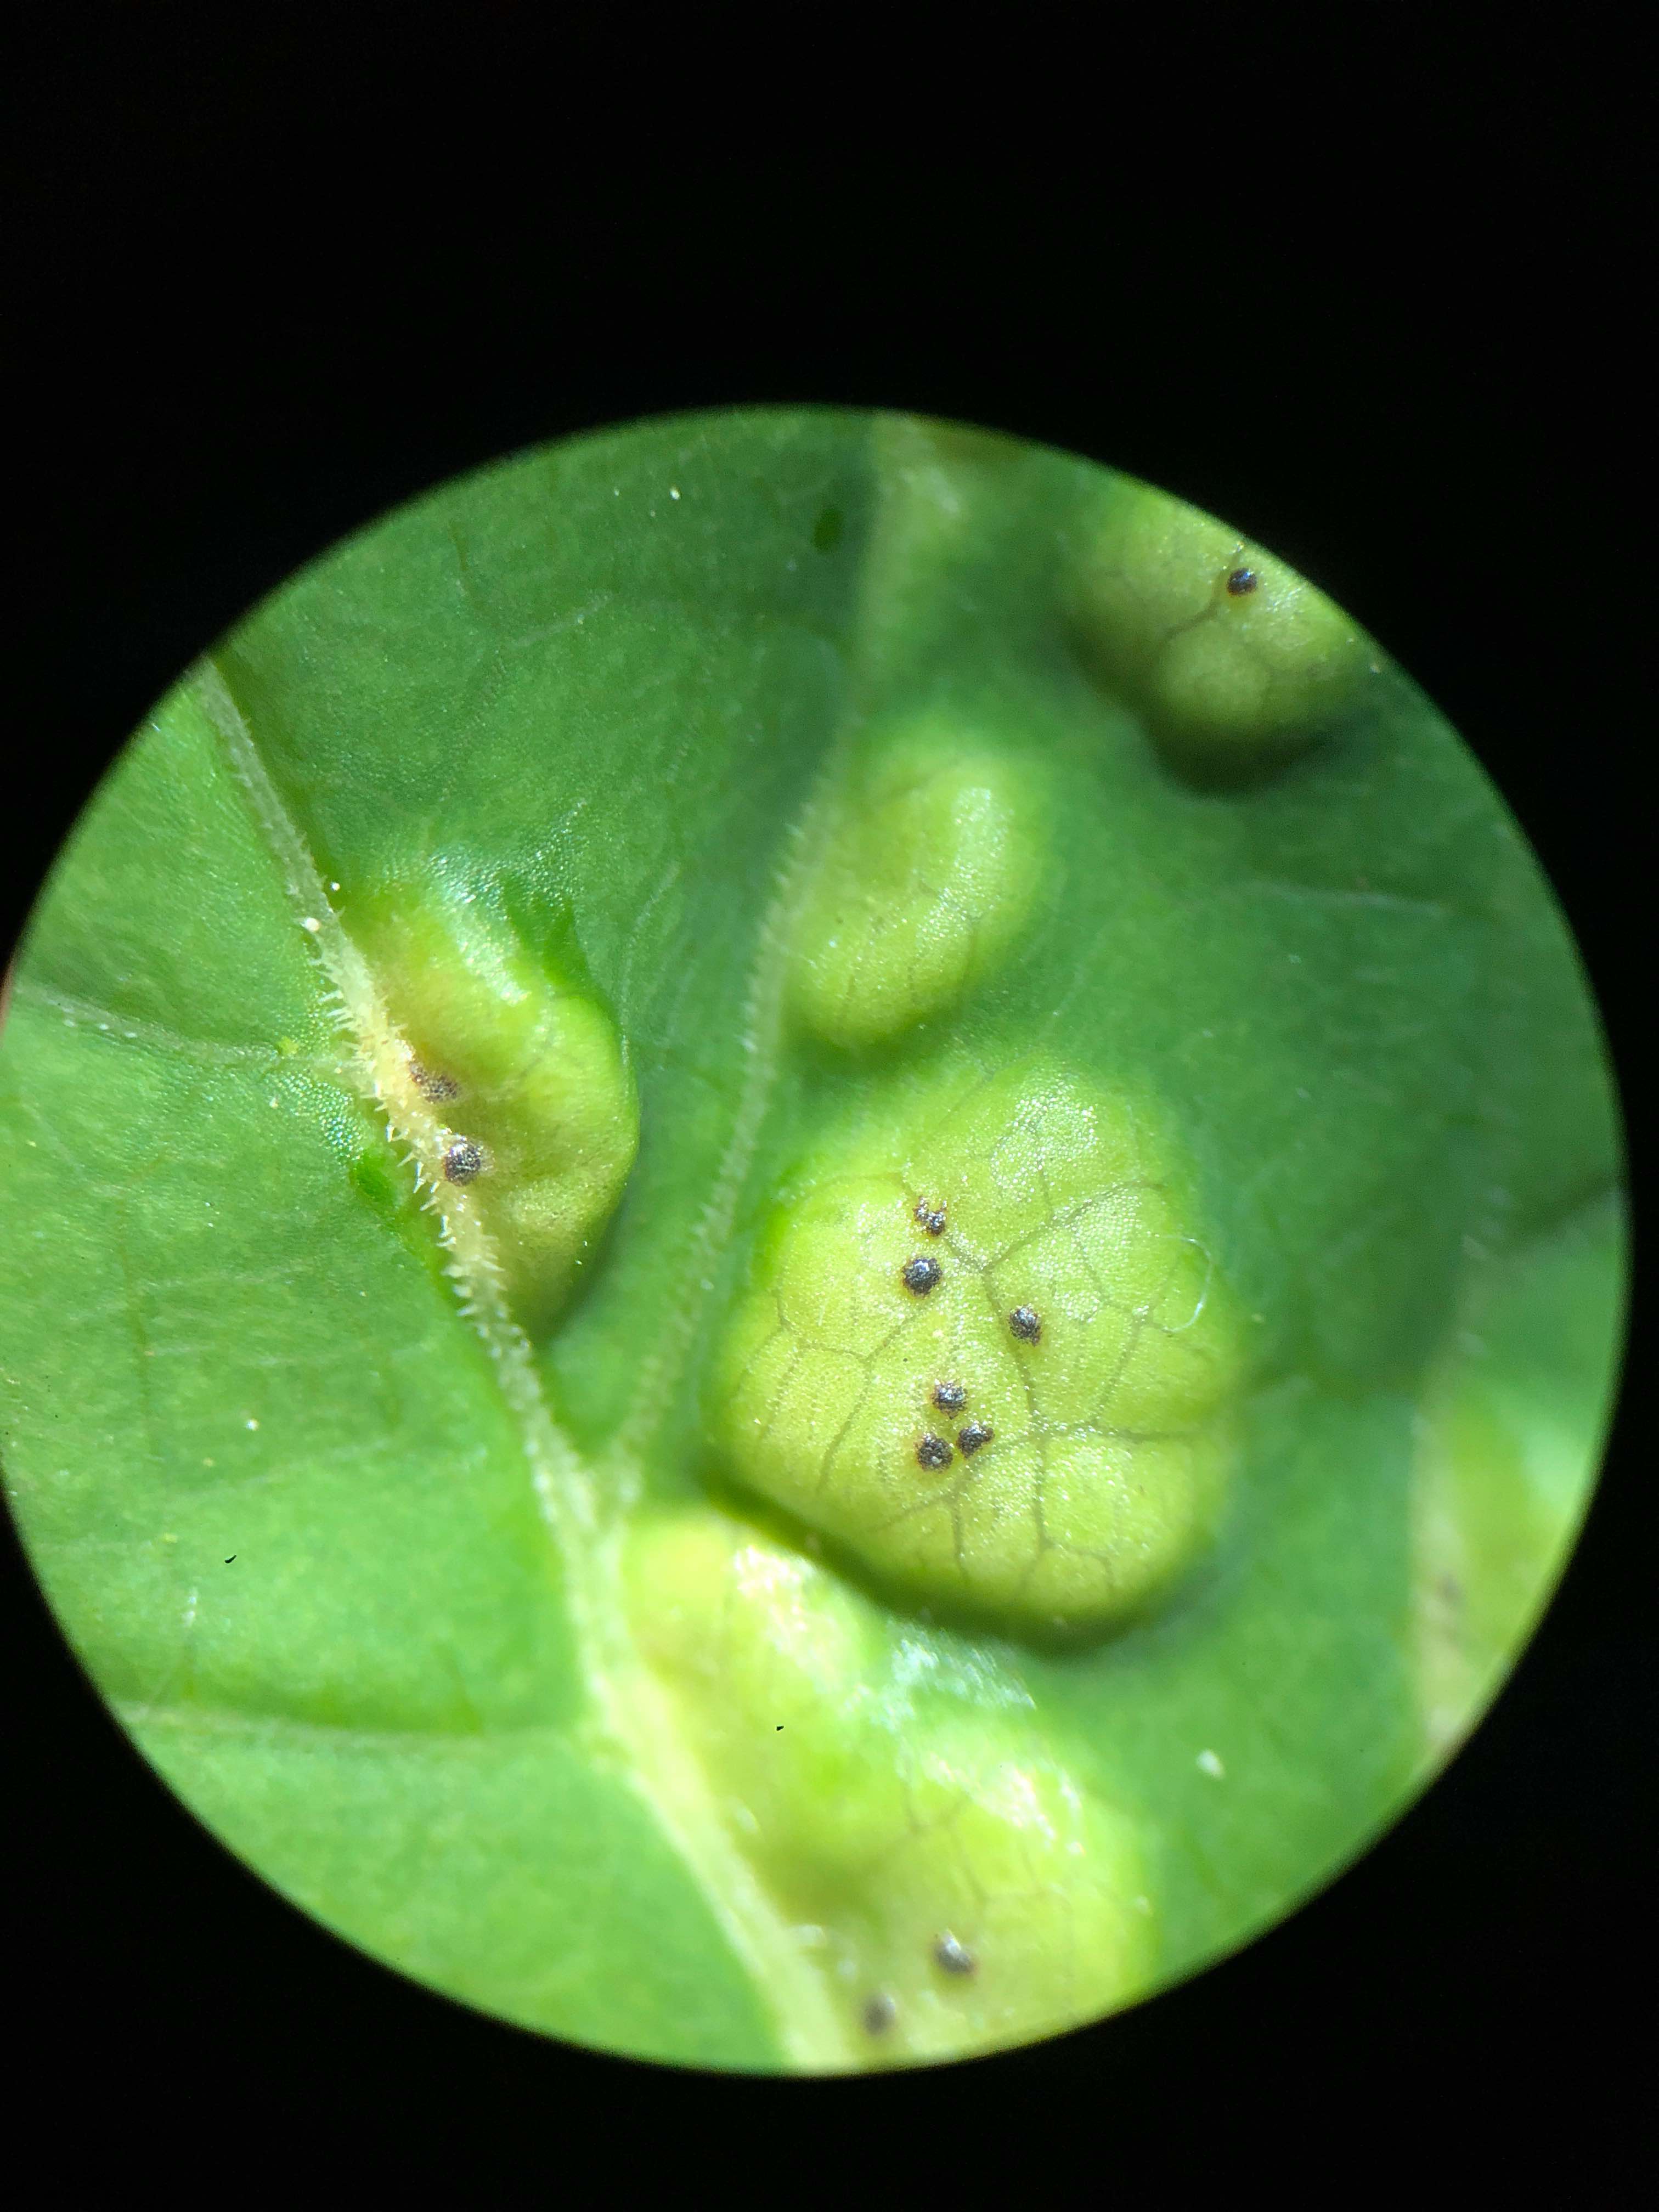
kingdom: Fungi
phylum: Basidiomycota
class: Pucciniomycetes
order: Pucciniales
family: Pucciniaceae
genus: Puccinia
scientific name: Puccinia
